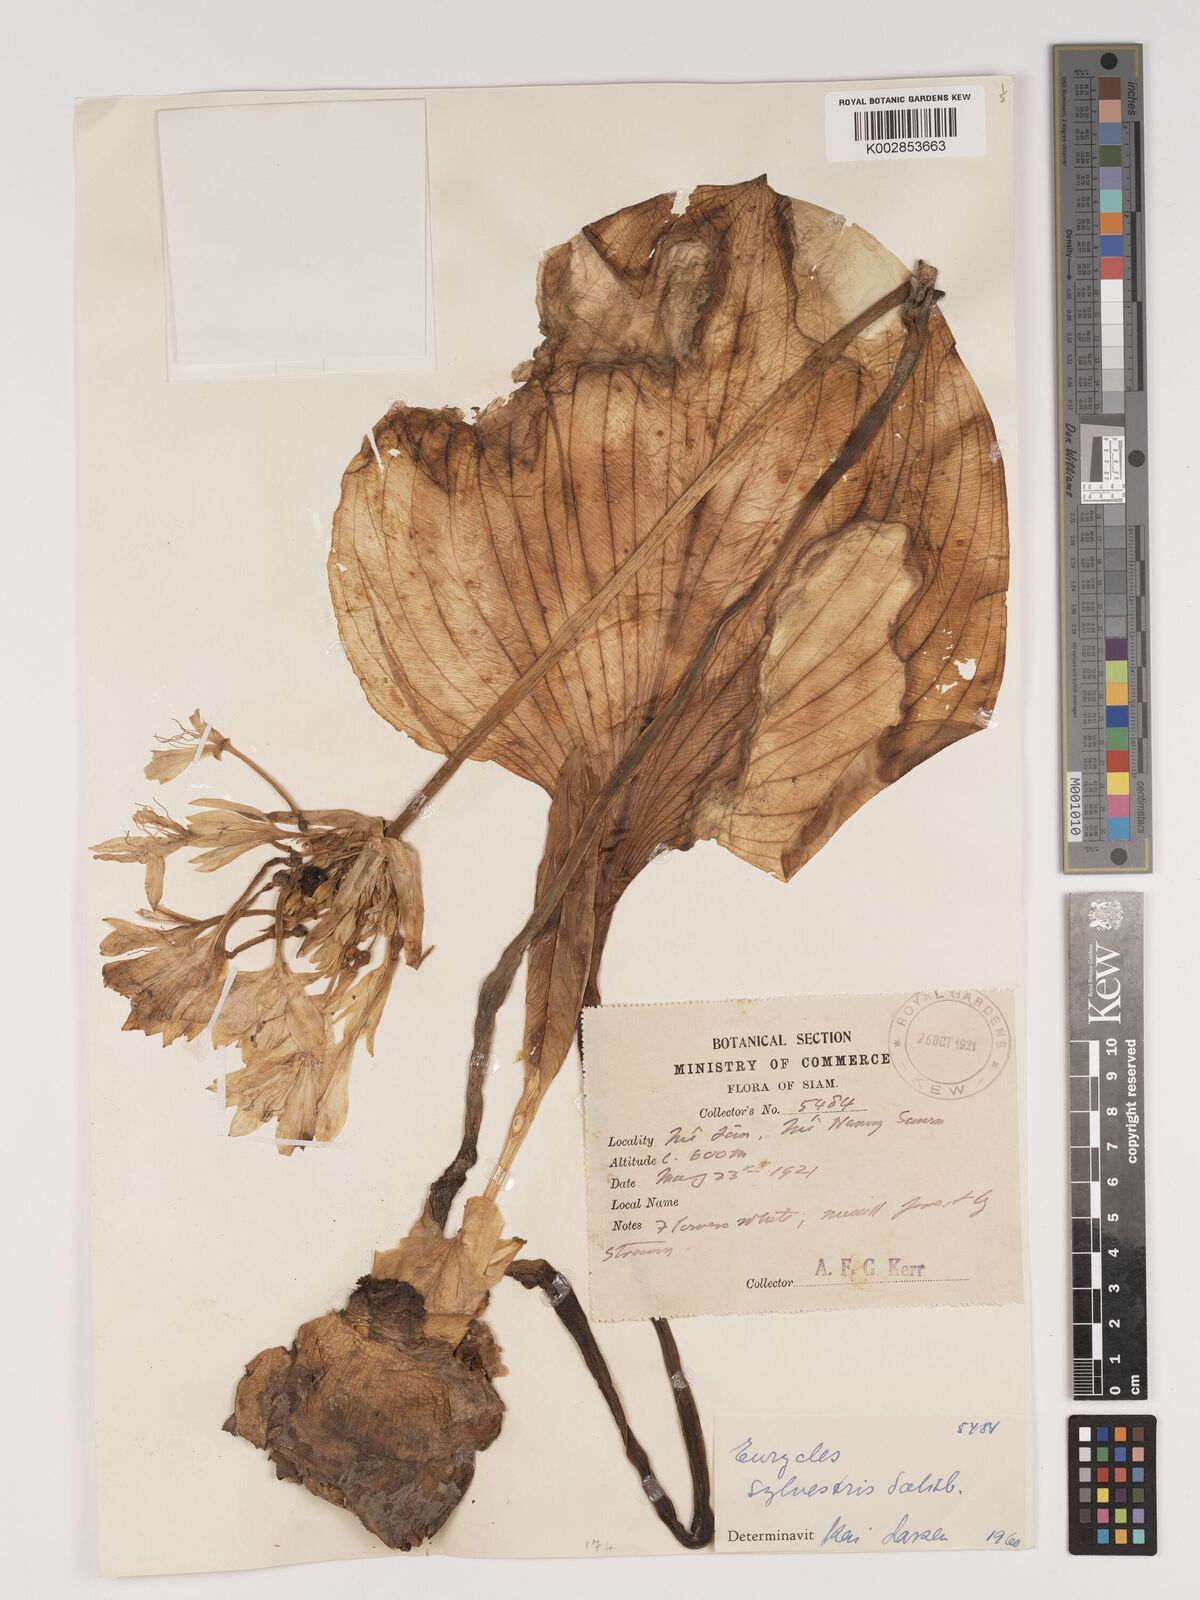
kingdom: Plantae
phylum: Tracheophyta
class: Liliopsida
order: Asparagales
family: Amaryllidaceae
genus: Proiphys
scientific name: Proiphys amboinensis
